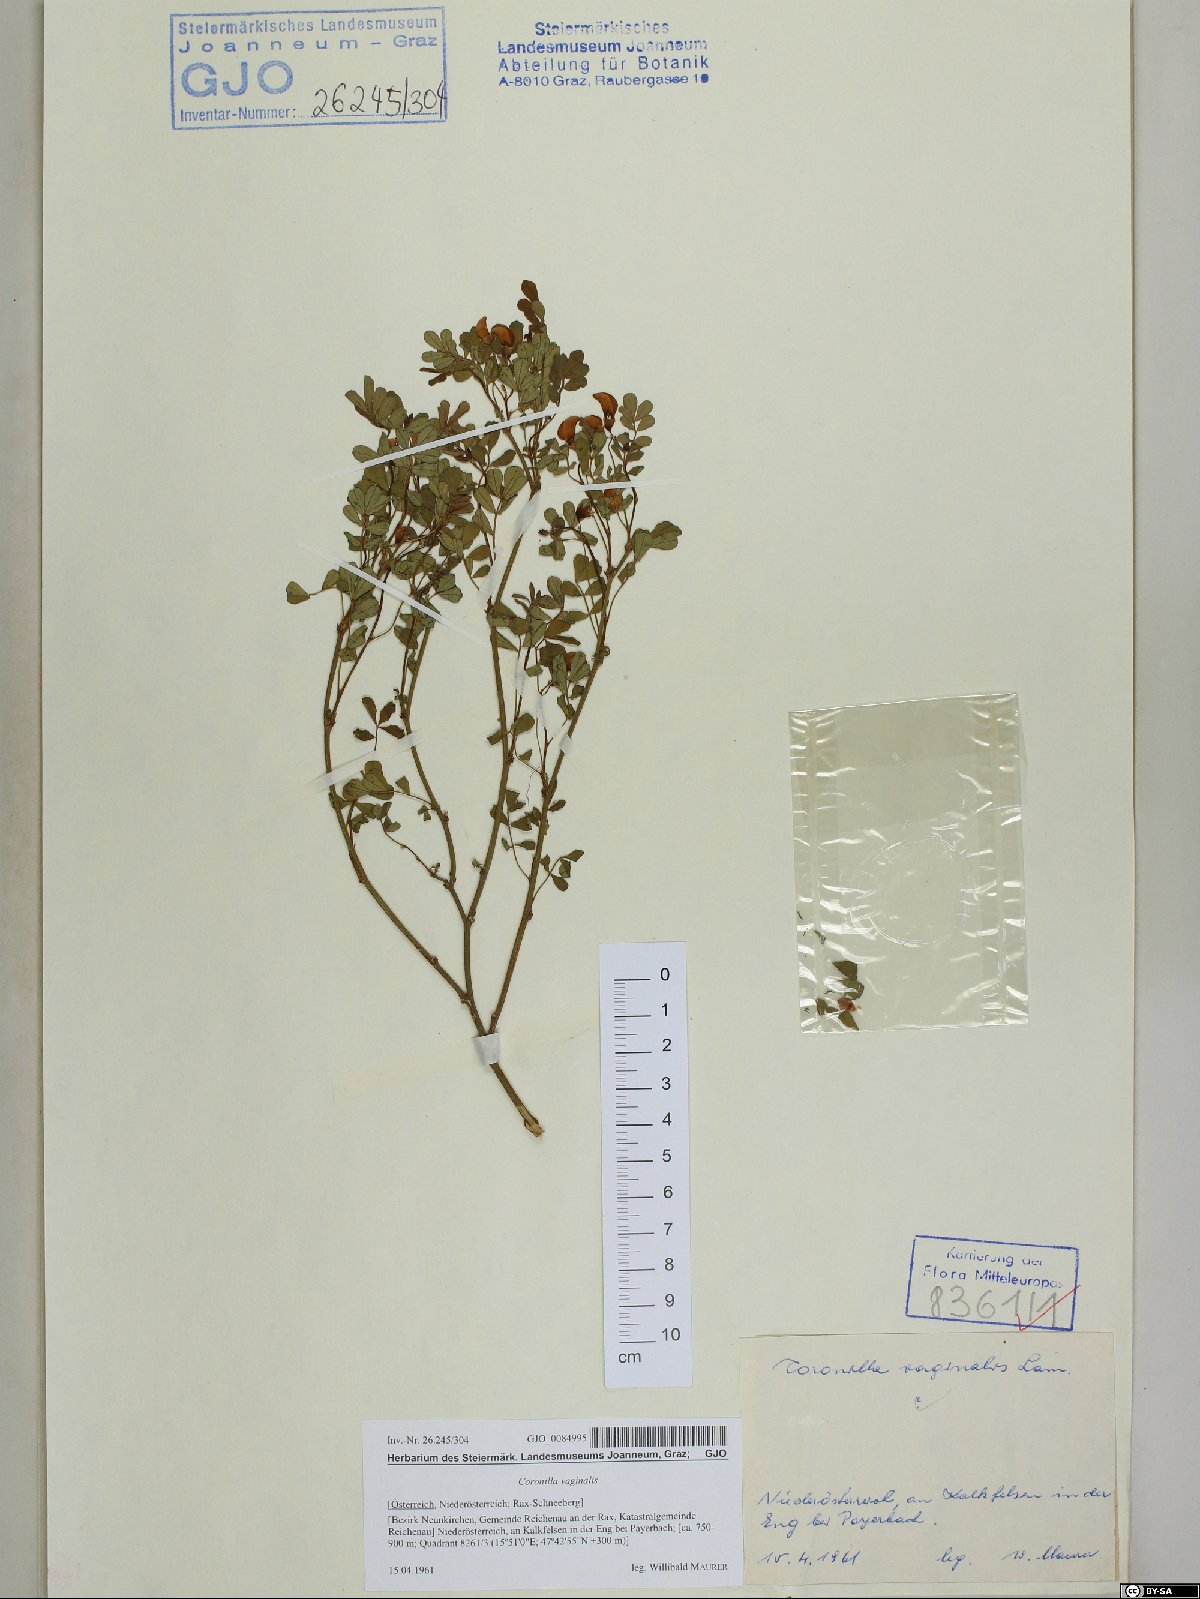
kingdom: Plantae
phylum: Tracheophyta
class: Magnoliopsida
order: Fabales
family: Fabaceae
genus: Coronilla
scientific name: Coronilla vaginalis
